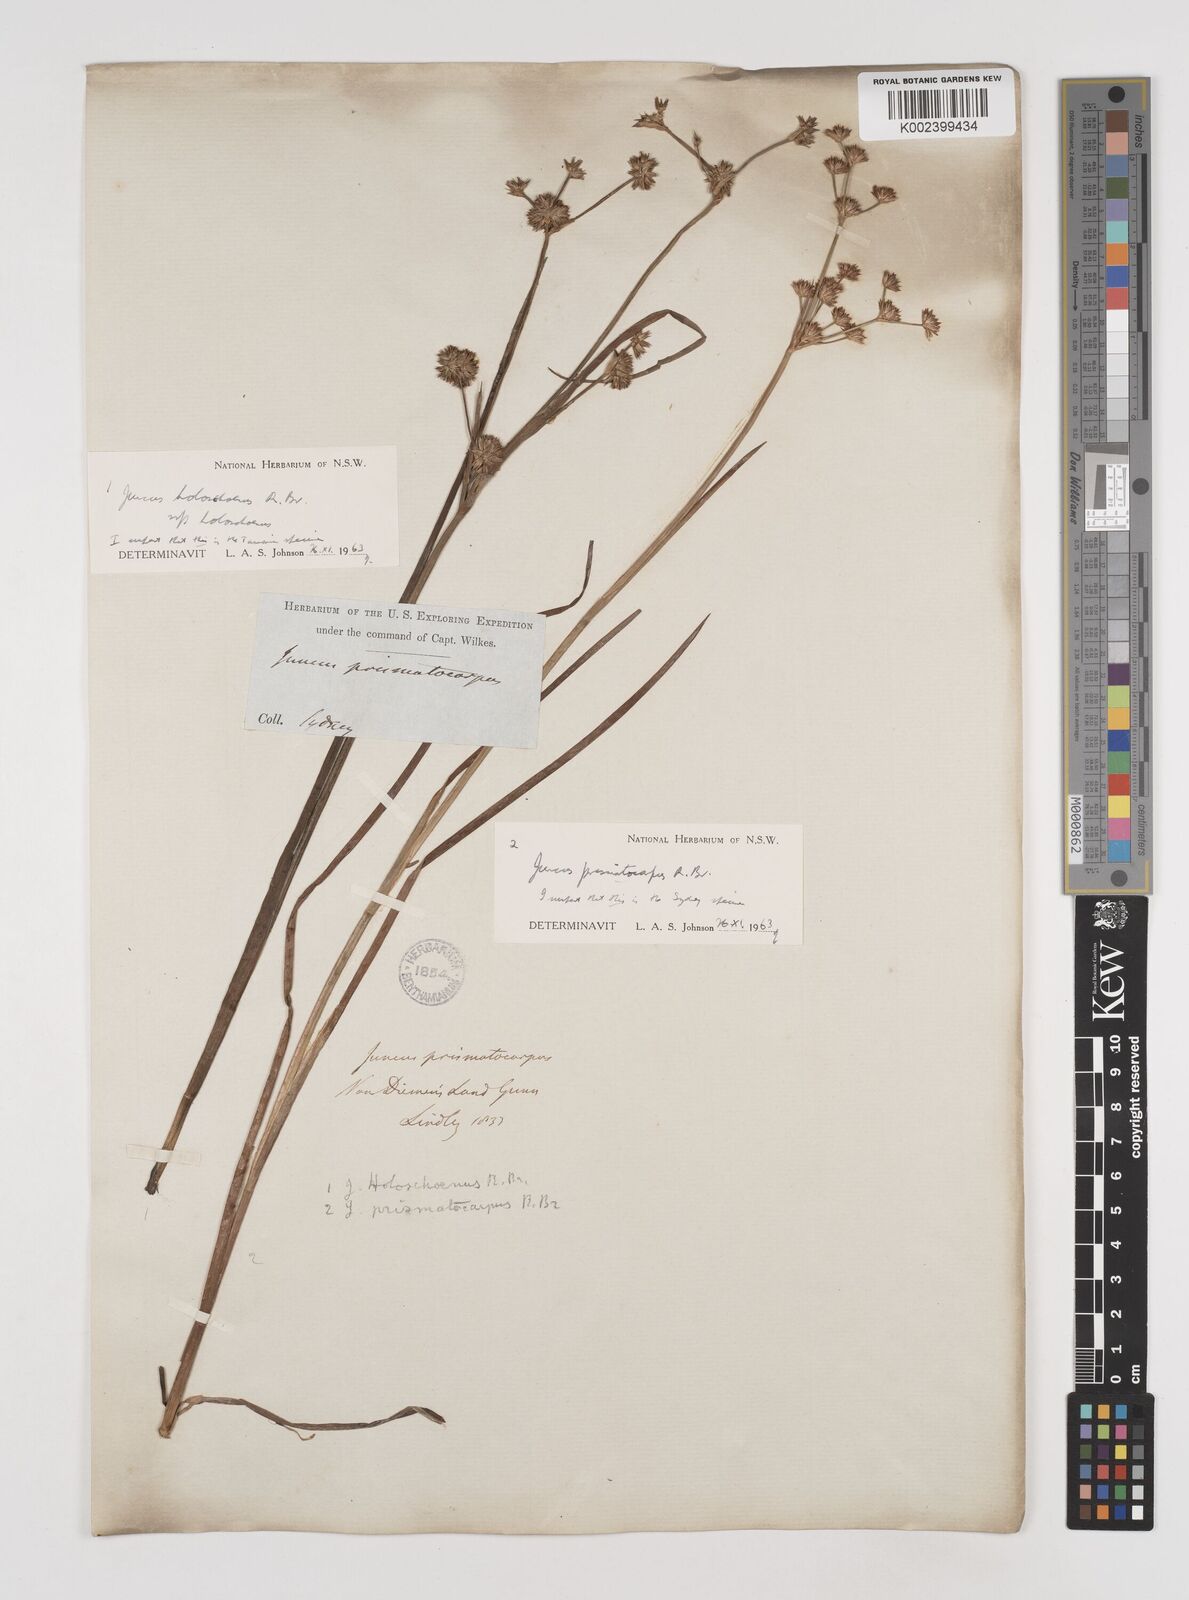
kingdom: Plantae
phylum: Tracheophyta
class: Liliopsida
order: Poales
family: Juncaceae
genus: Juncus
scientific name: Juncus prismatocarpus
